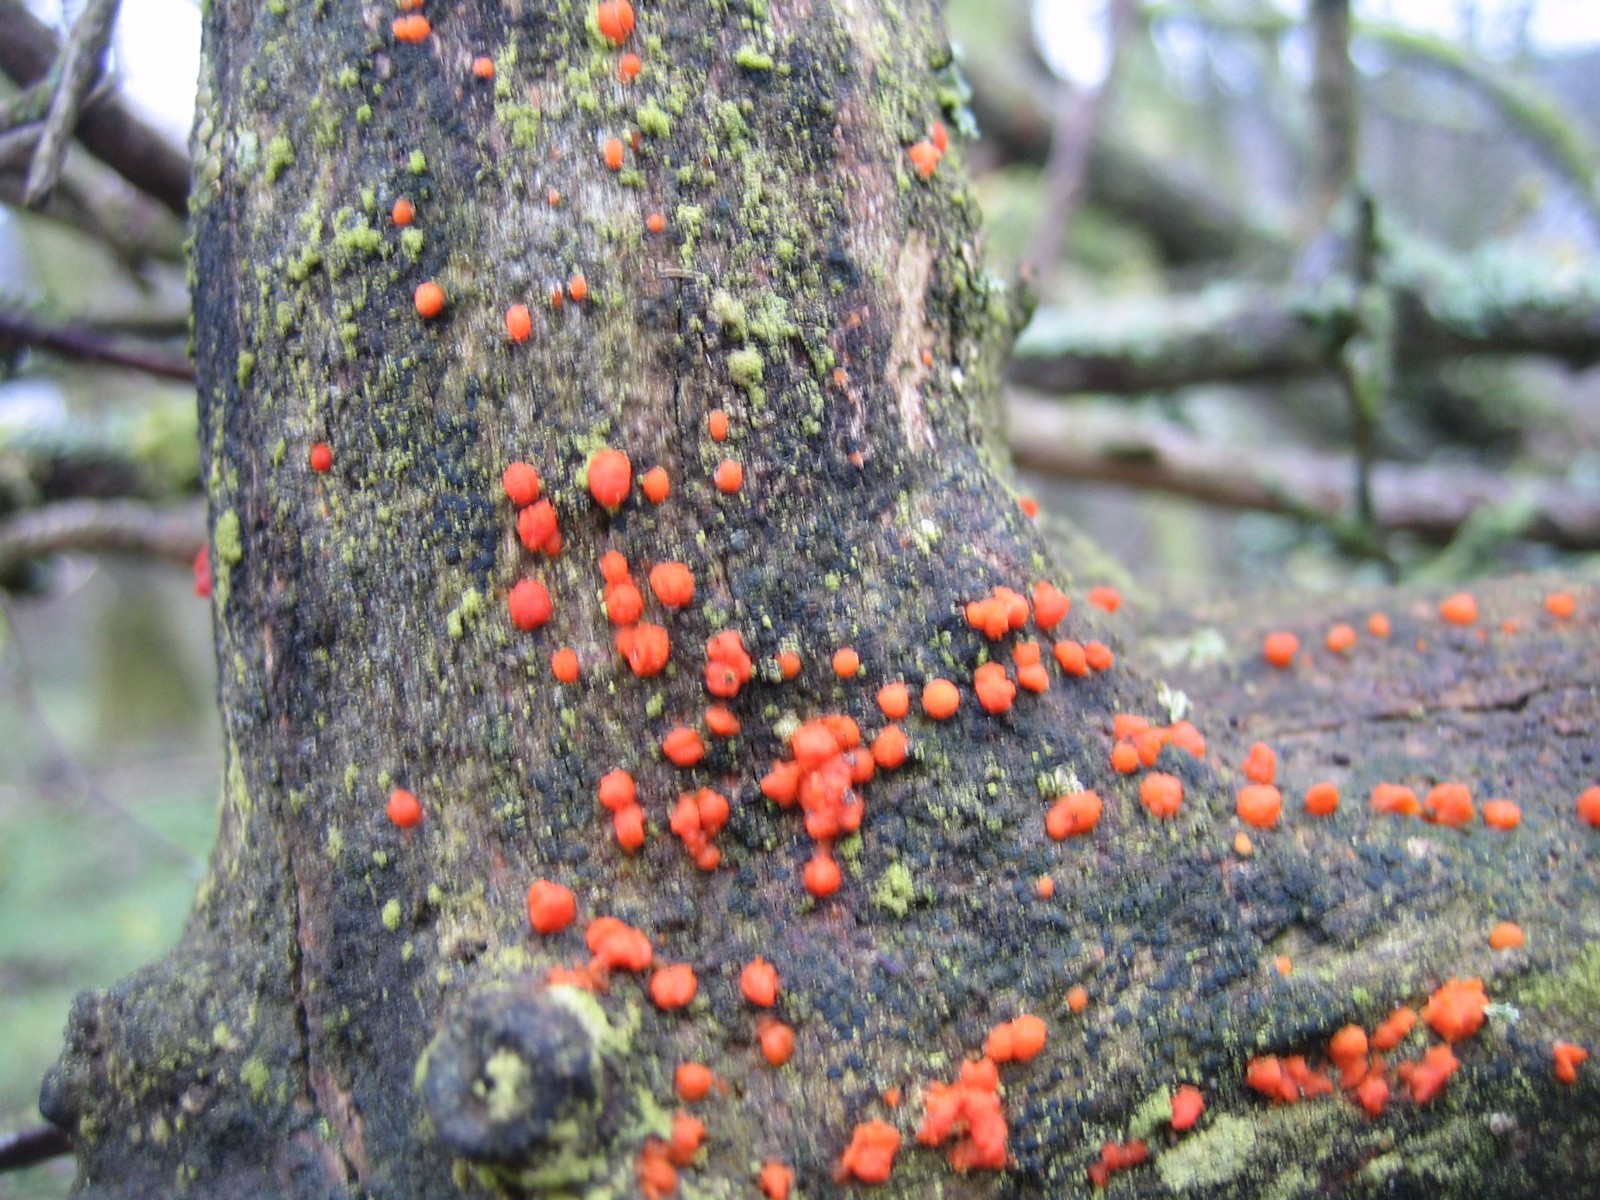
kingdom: Fungi
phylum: Basidiomycota
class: Dacrymycetes
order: Dacrymycetales
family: Dacrymycetaceae
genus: Dacrymyces
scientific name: Dacrymyces stillatus
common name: almindelig tåresvamp
